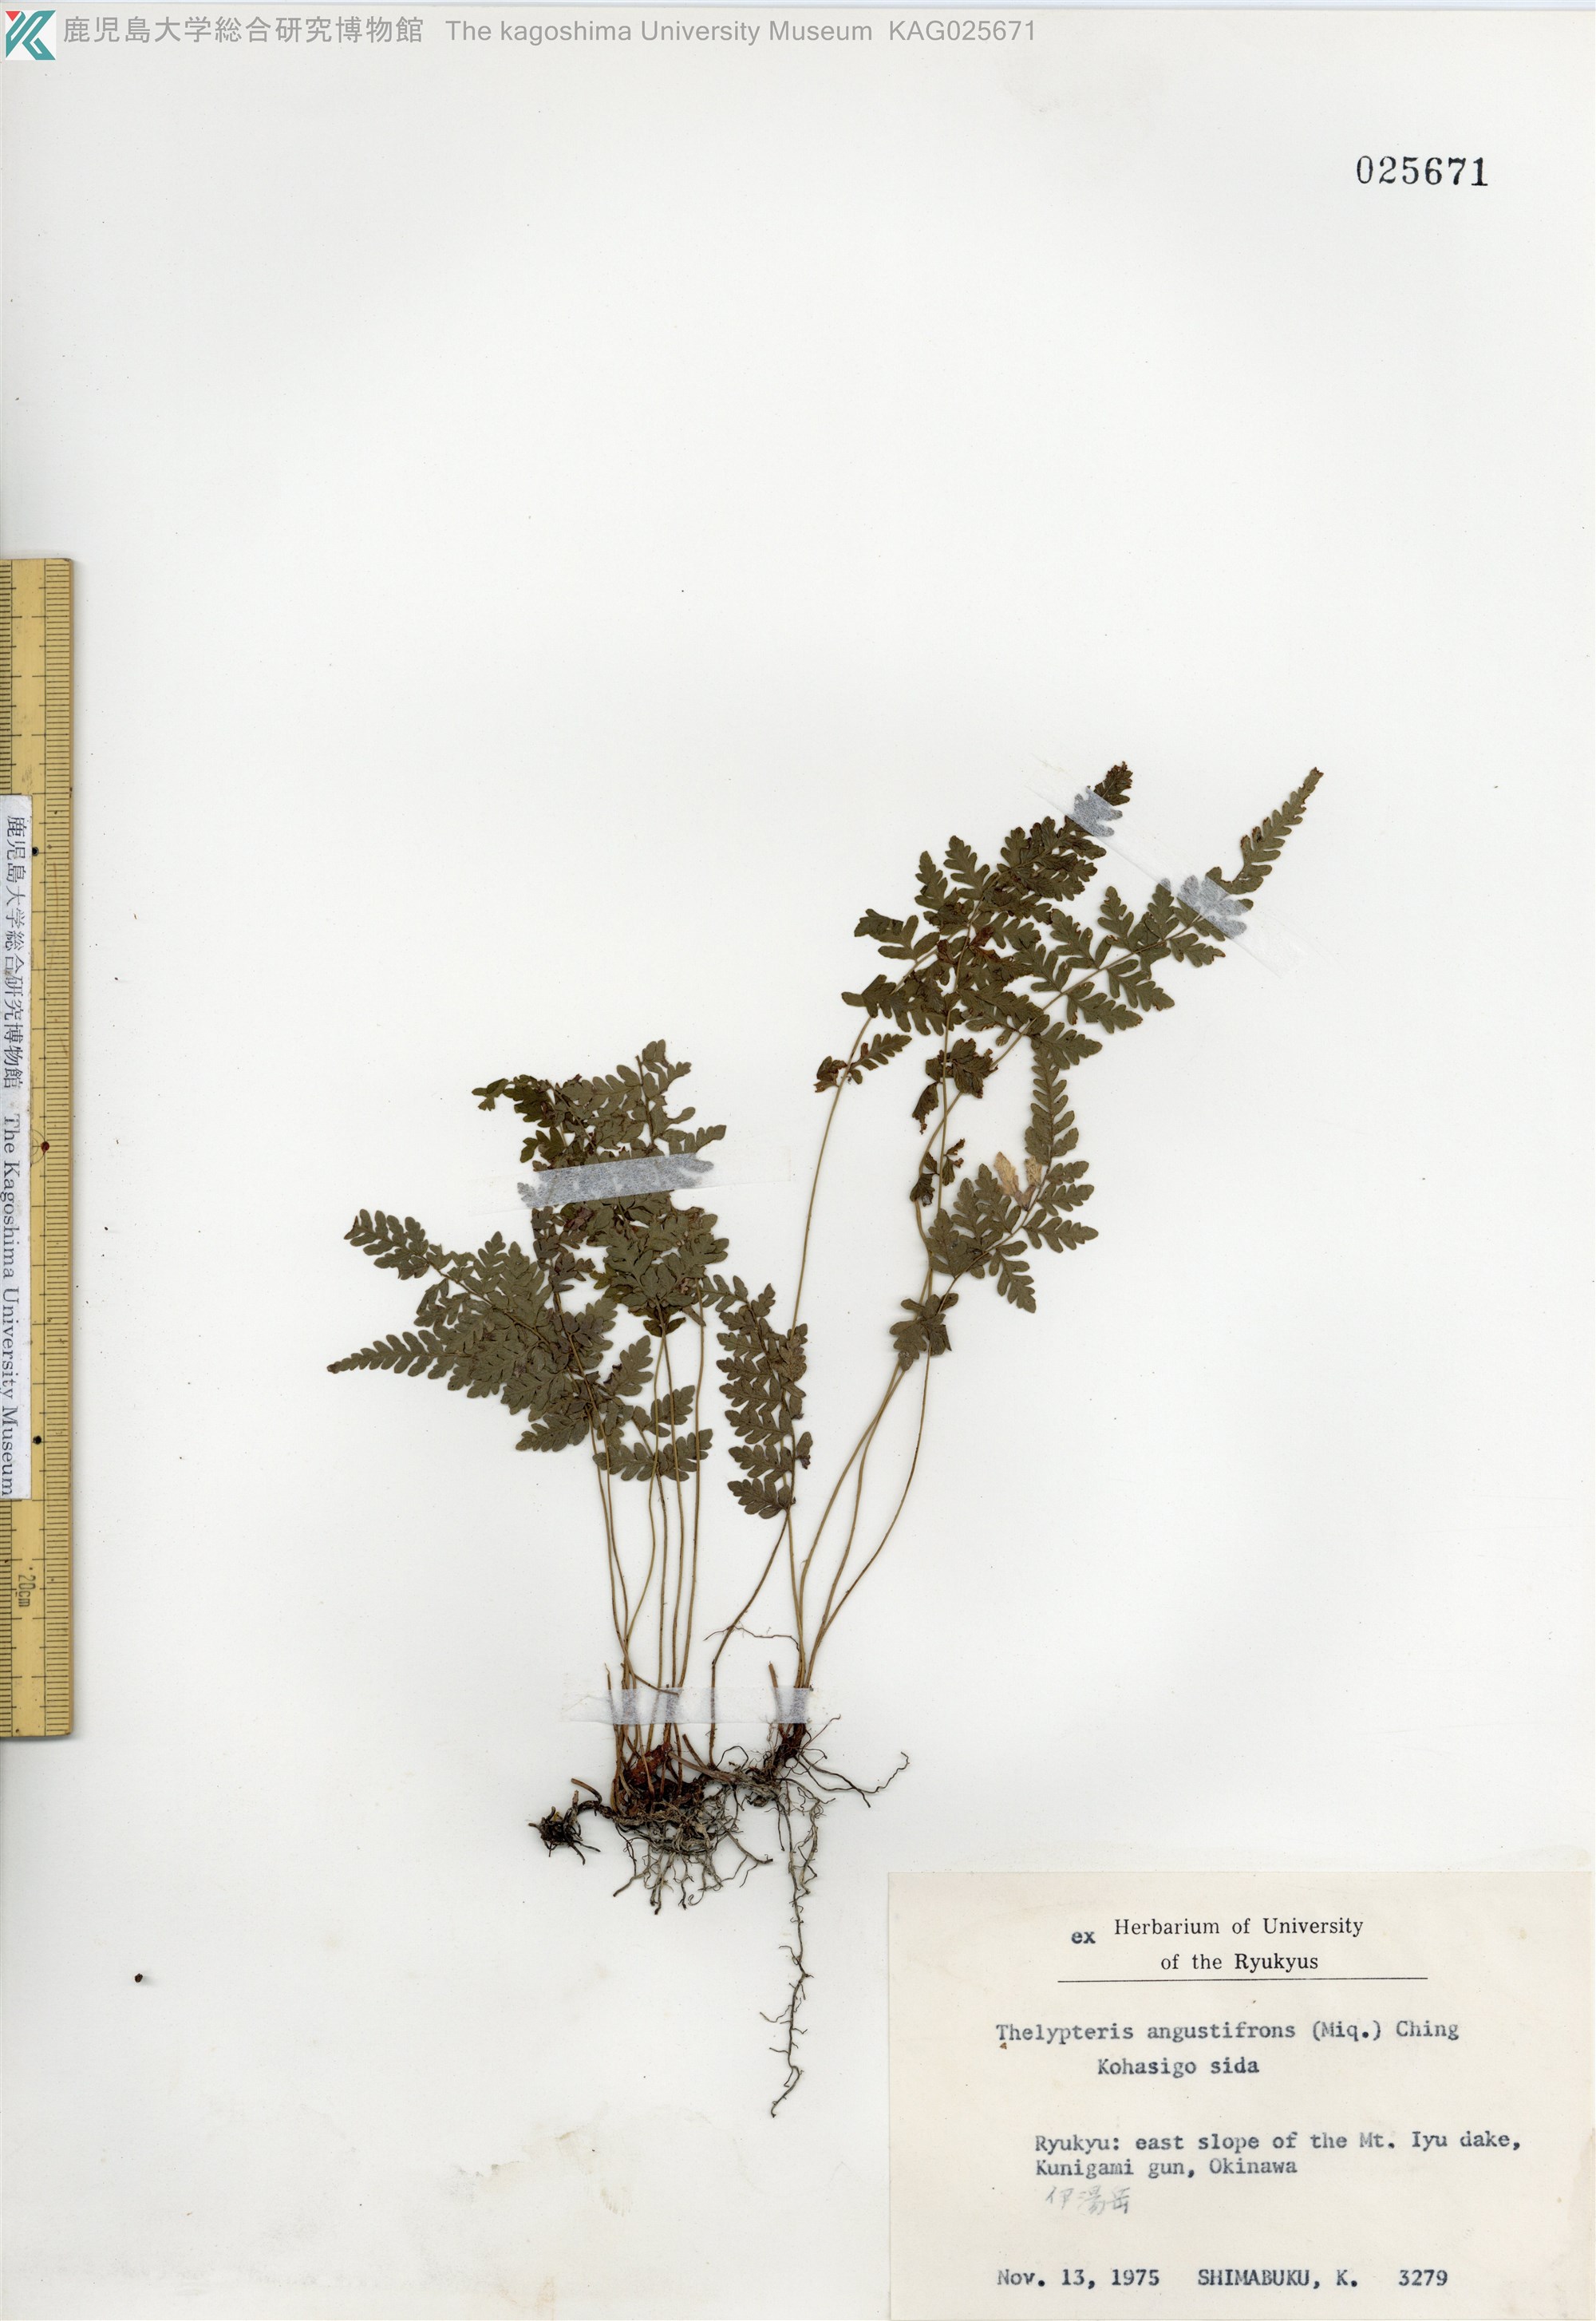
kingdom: Plantae
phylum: Tracheophyta
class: Polypodiopsida
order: Polypodiales
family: Thelypteridaceae
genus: Amauropelta
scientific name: Amauropelta angustifrons
